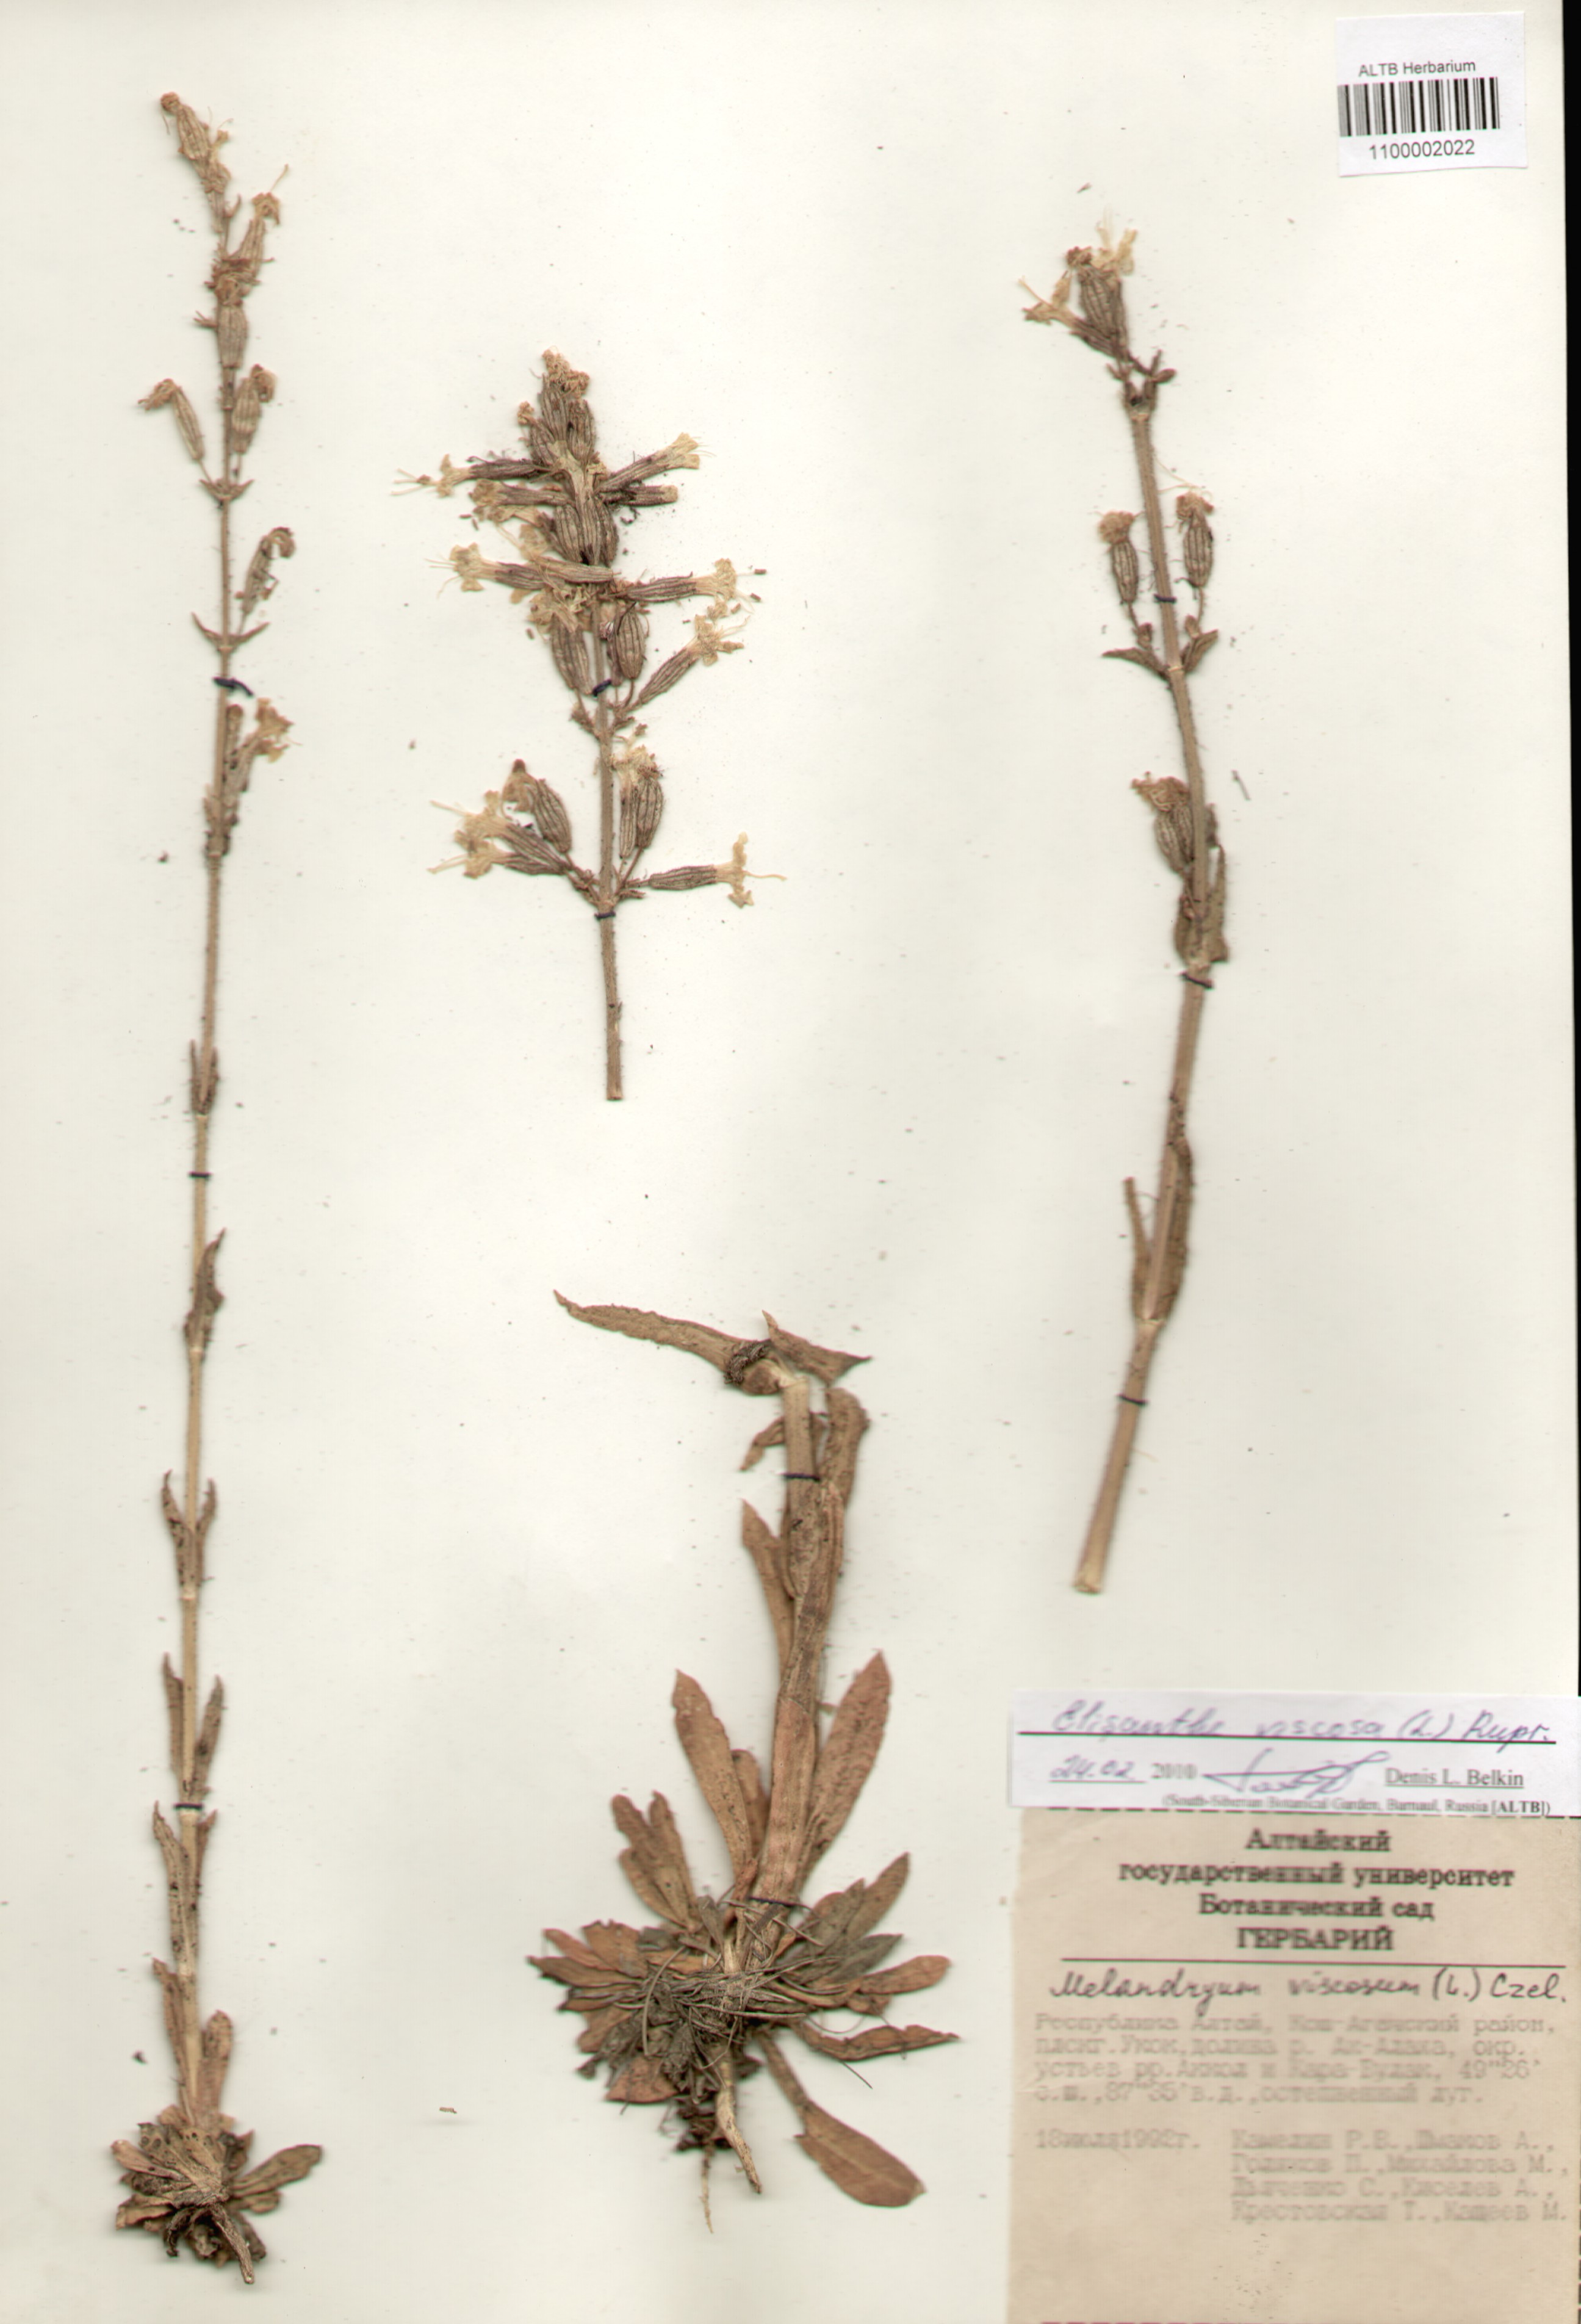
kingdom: Plantae
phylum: Tracheophyta
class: Magnoliopsida
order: Caryophyllales
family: Caryophyllaceae
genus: Silene
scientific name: Silene viscosa
